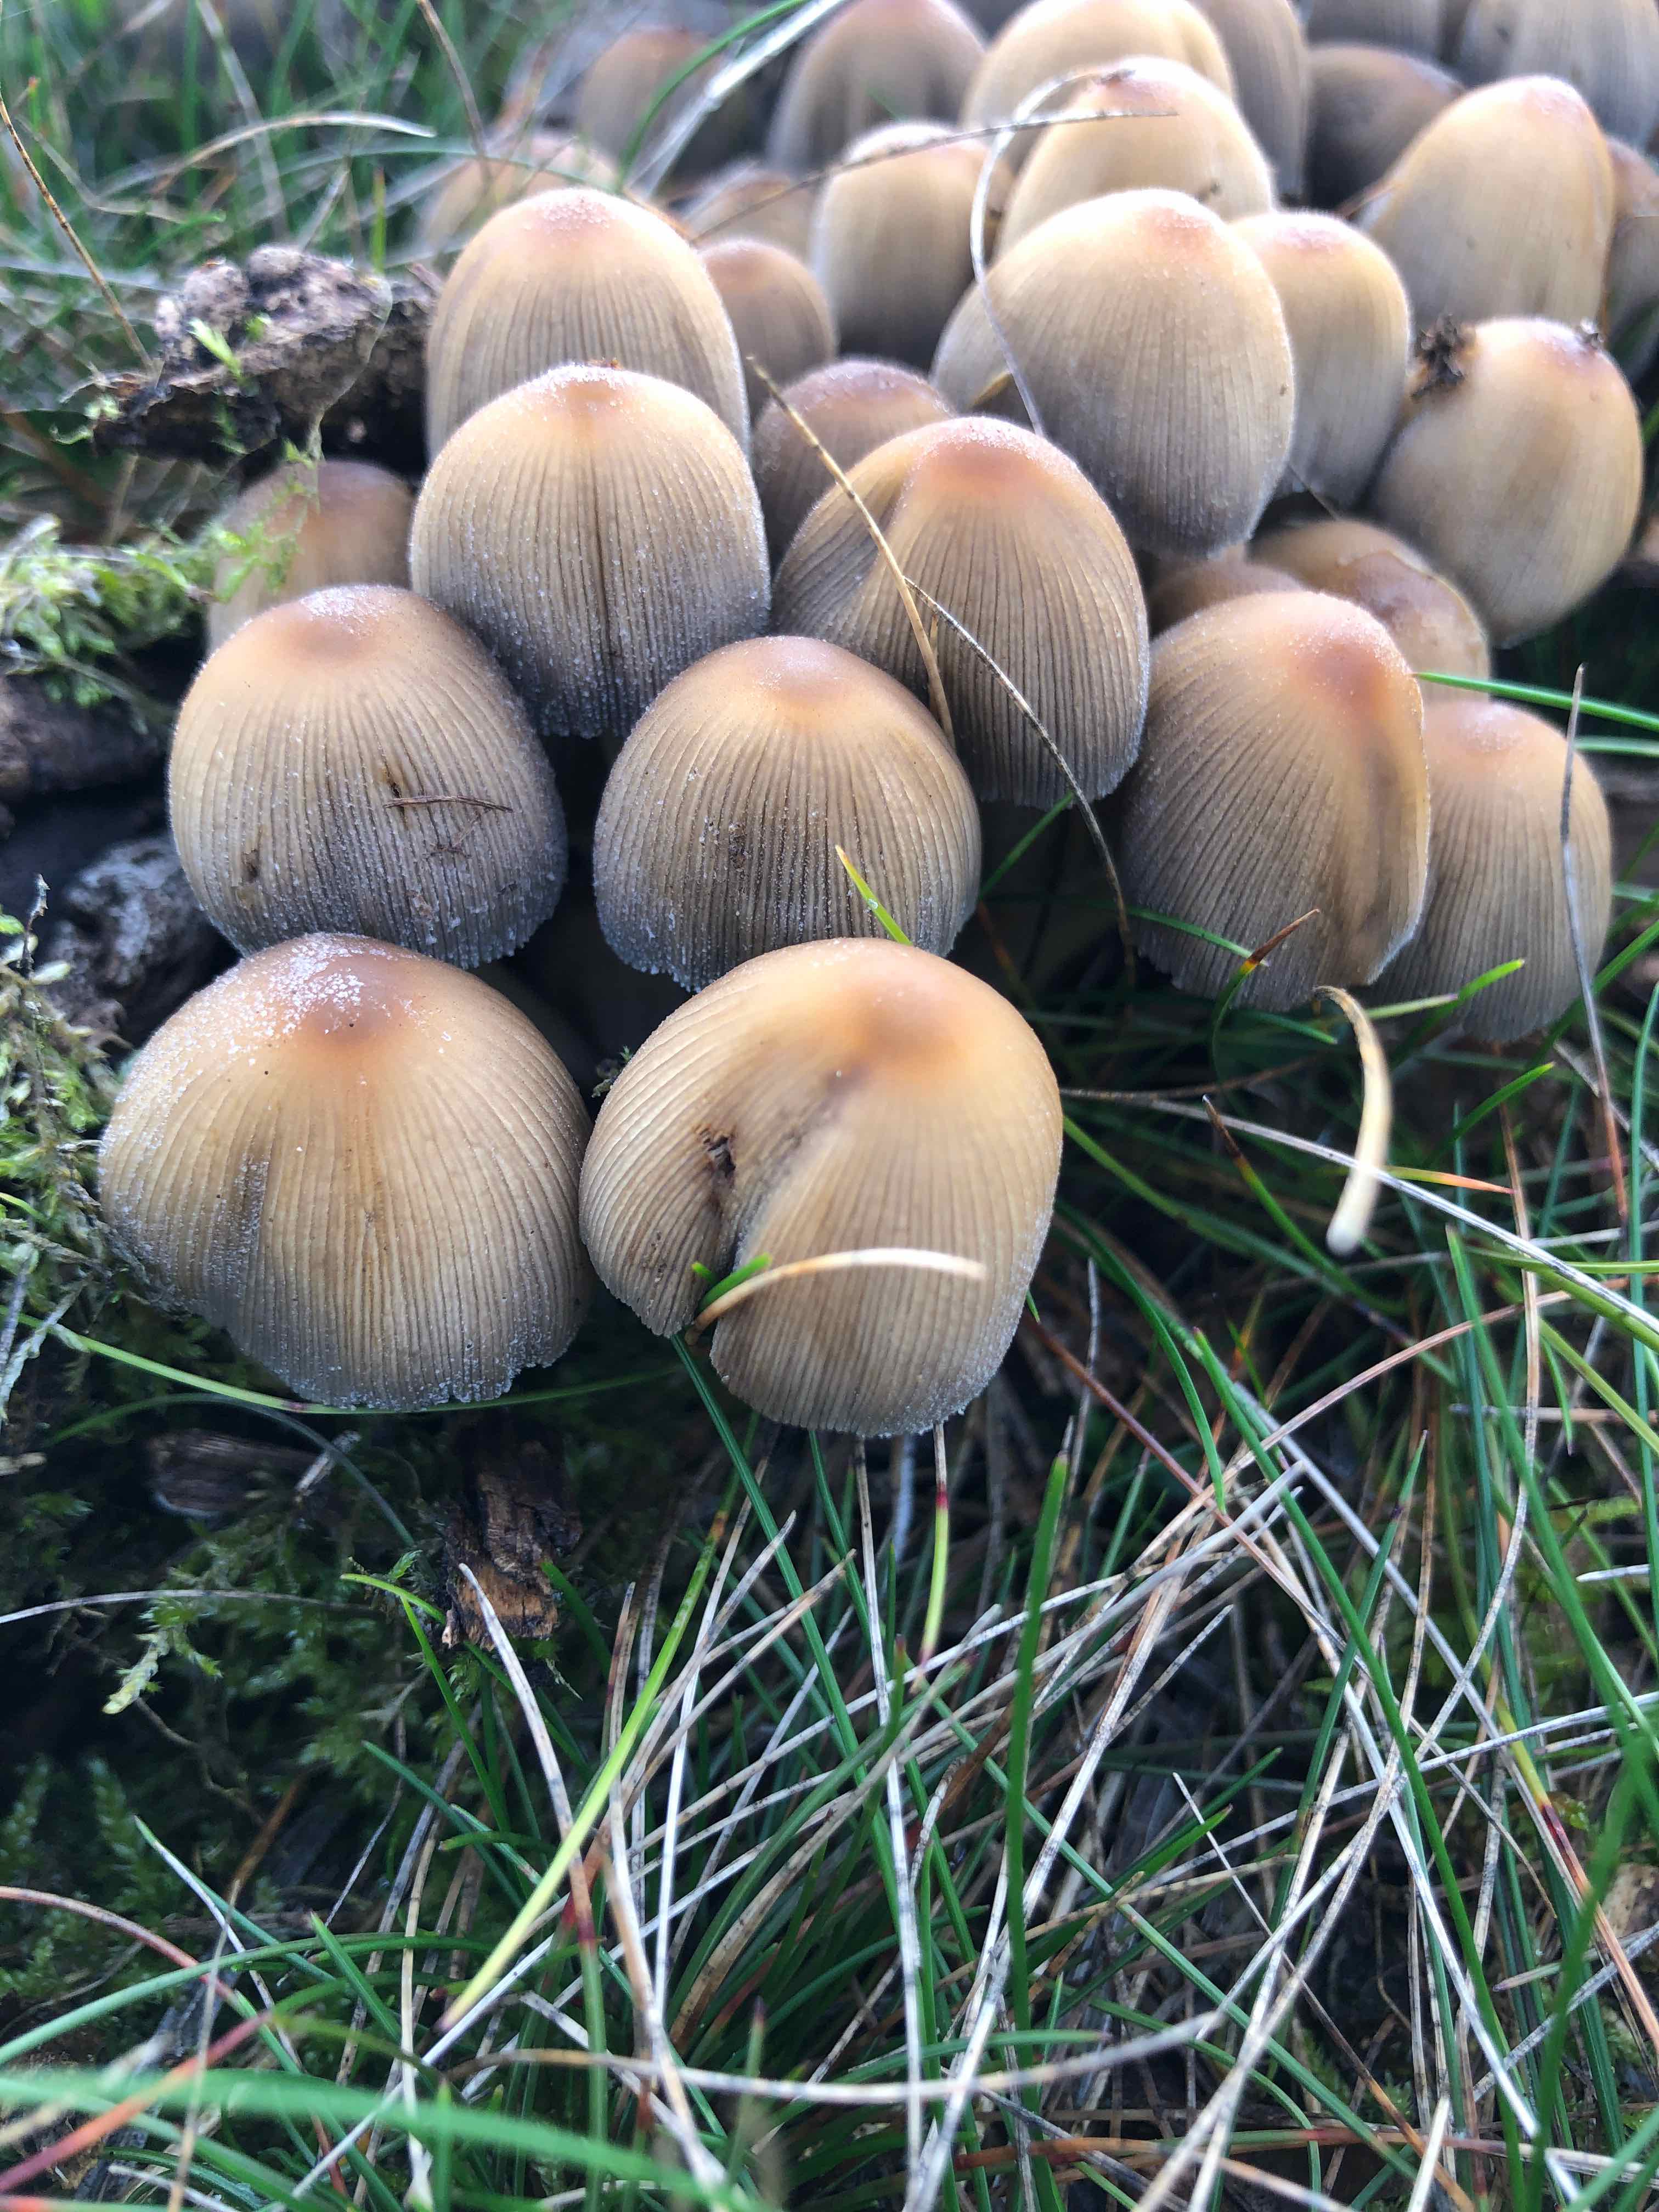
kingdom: Fungi
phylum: Basidiomycota
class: Agaricomycetes
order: Agaricales
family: Psathyrellaceae
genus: Coprinellus
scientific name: Coprinellus micaceus
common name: glimmer-blækhat
